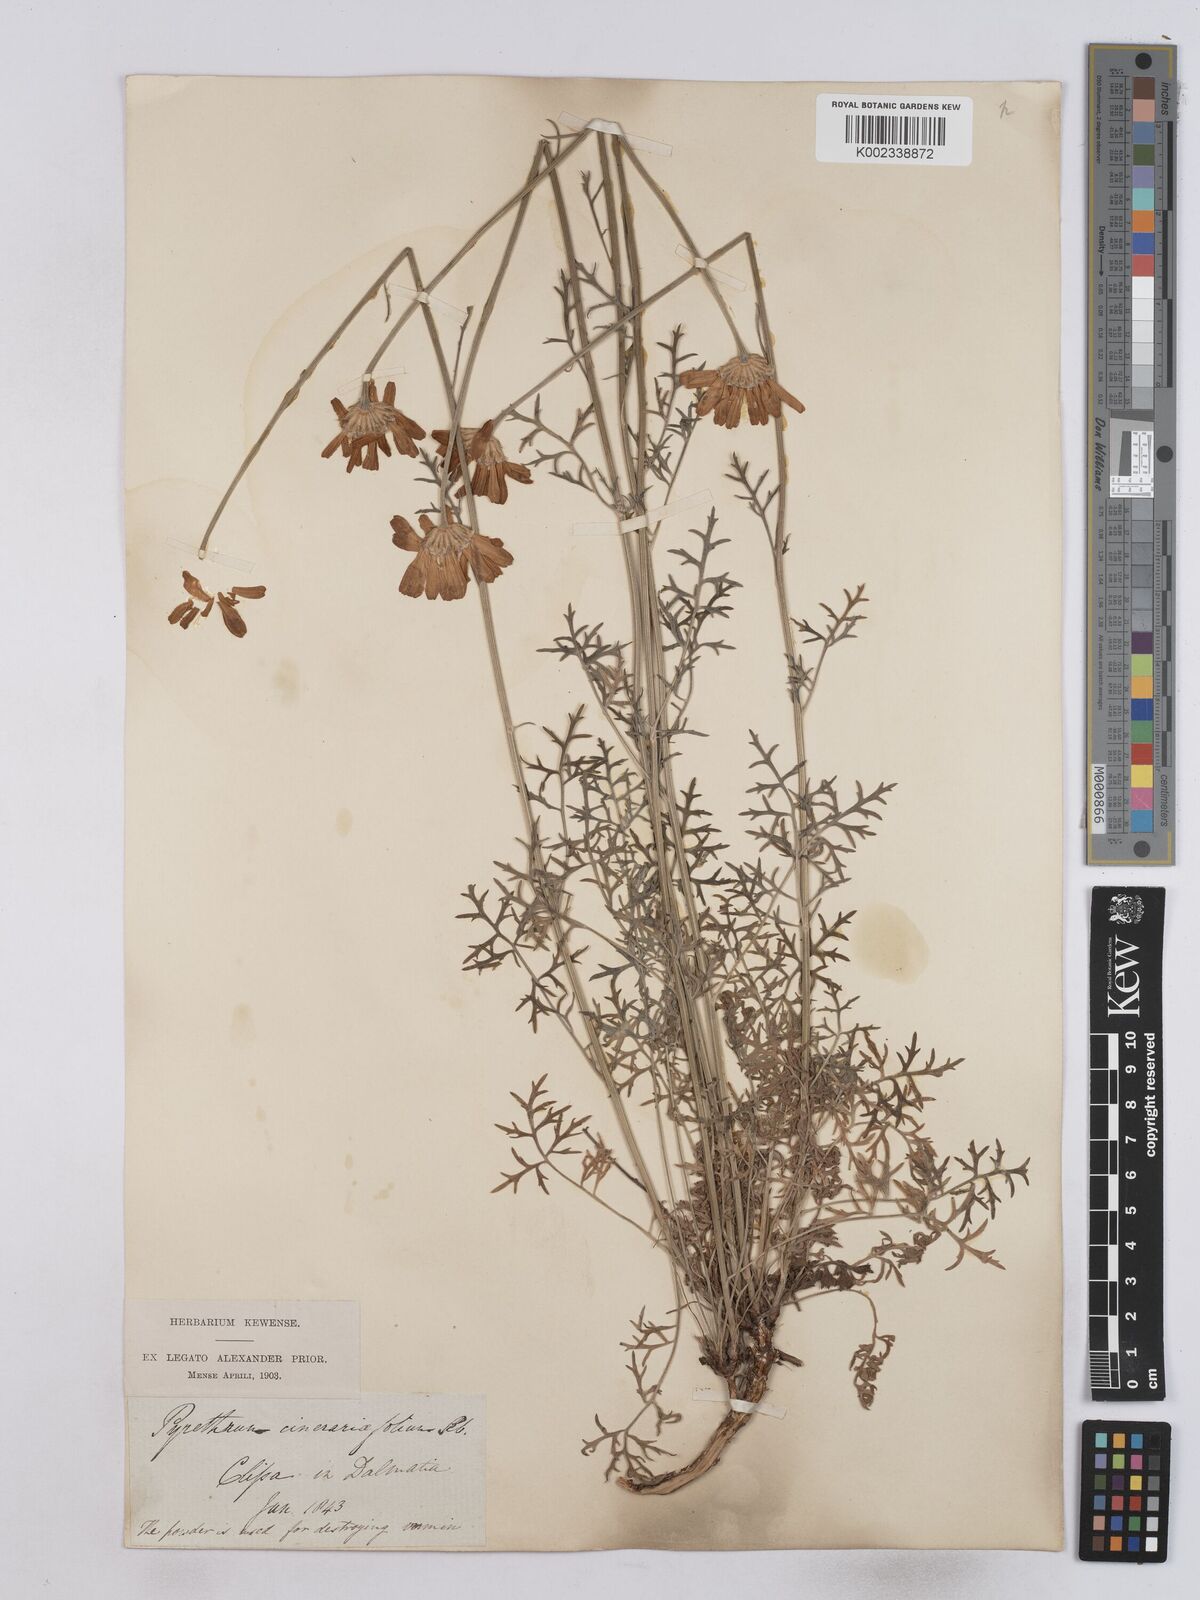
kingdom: Plantae
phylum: Tracheophyta
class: Magnoliopsida
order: Asterales
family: Asteraceae
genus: Tanacetum
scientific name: Tanacetum cinerariifolium
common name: Dalmatian pyrethrum
